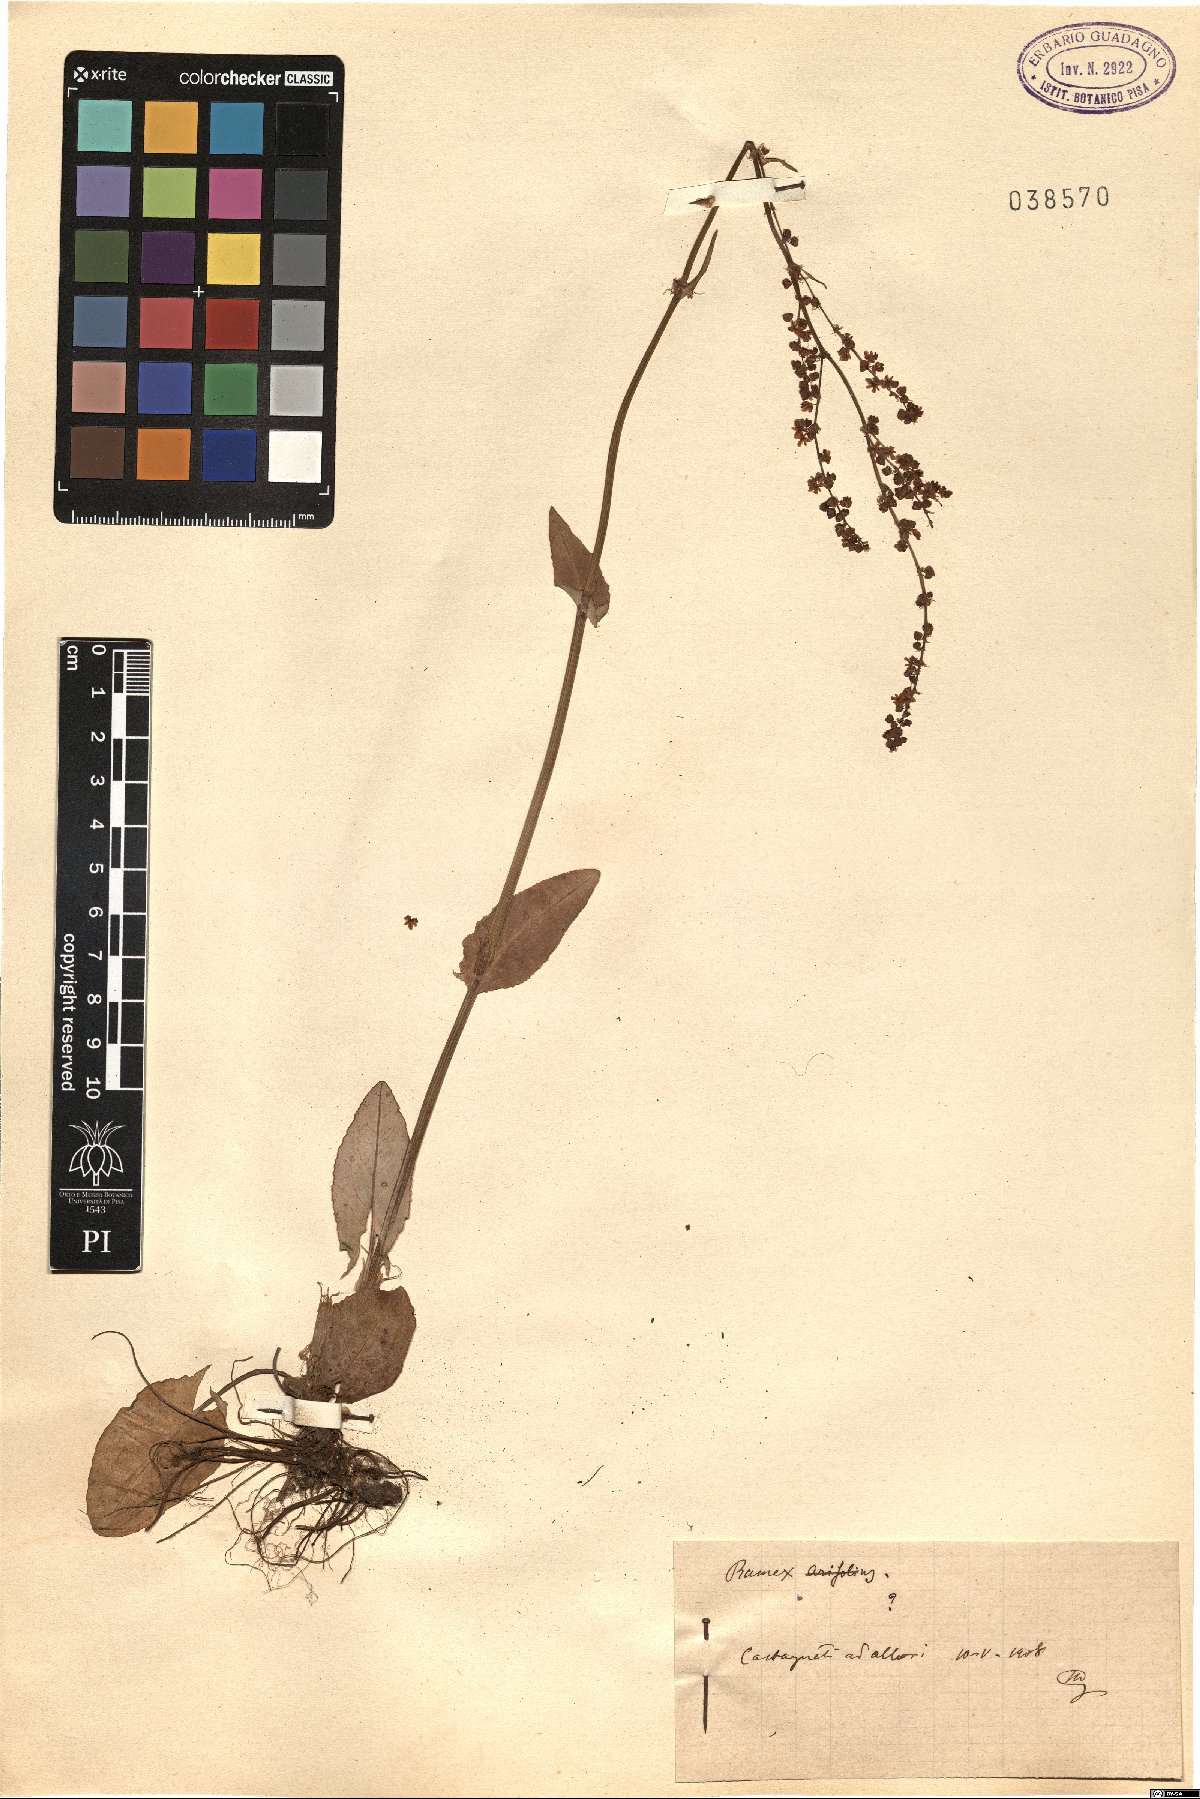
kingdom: Plantae
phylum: Tracheophyta
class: Magnoliopsida
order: Caryophyllales
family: Polygonaceae
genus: Rumex
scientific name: Rumex
